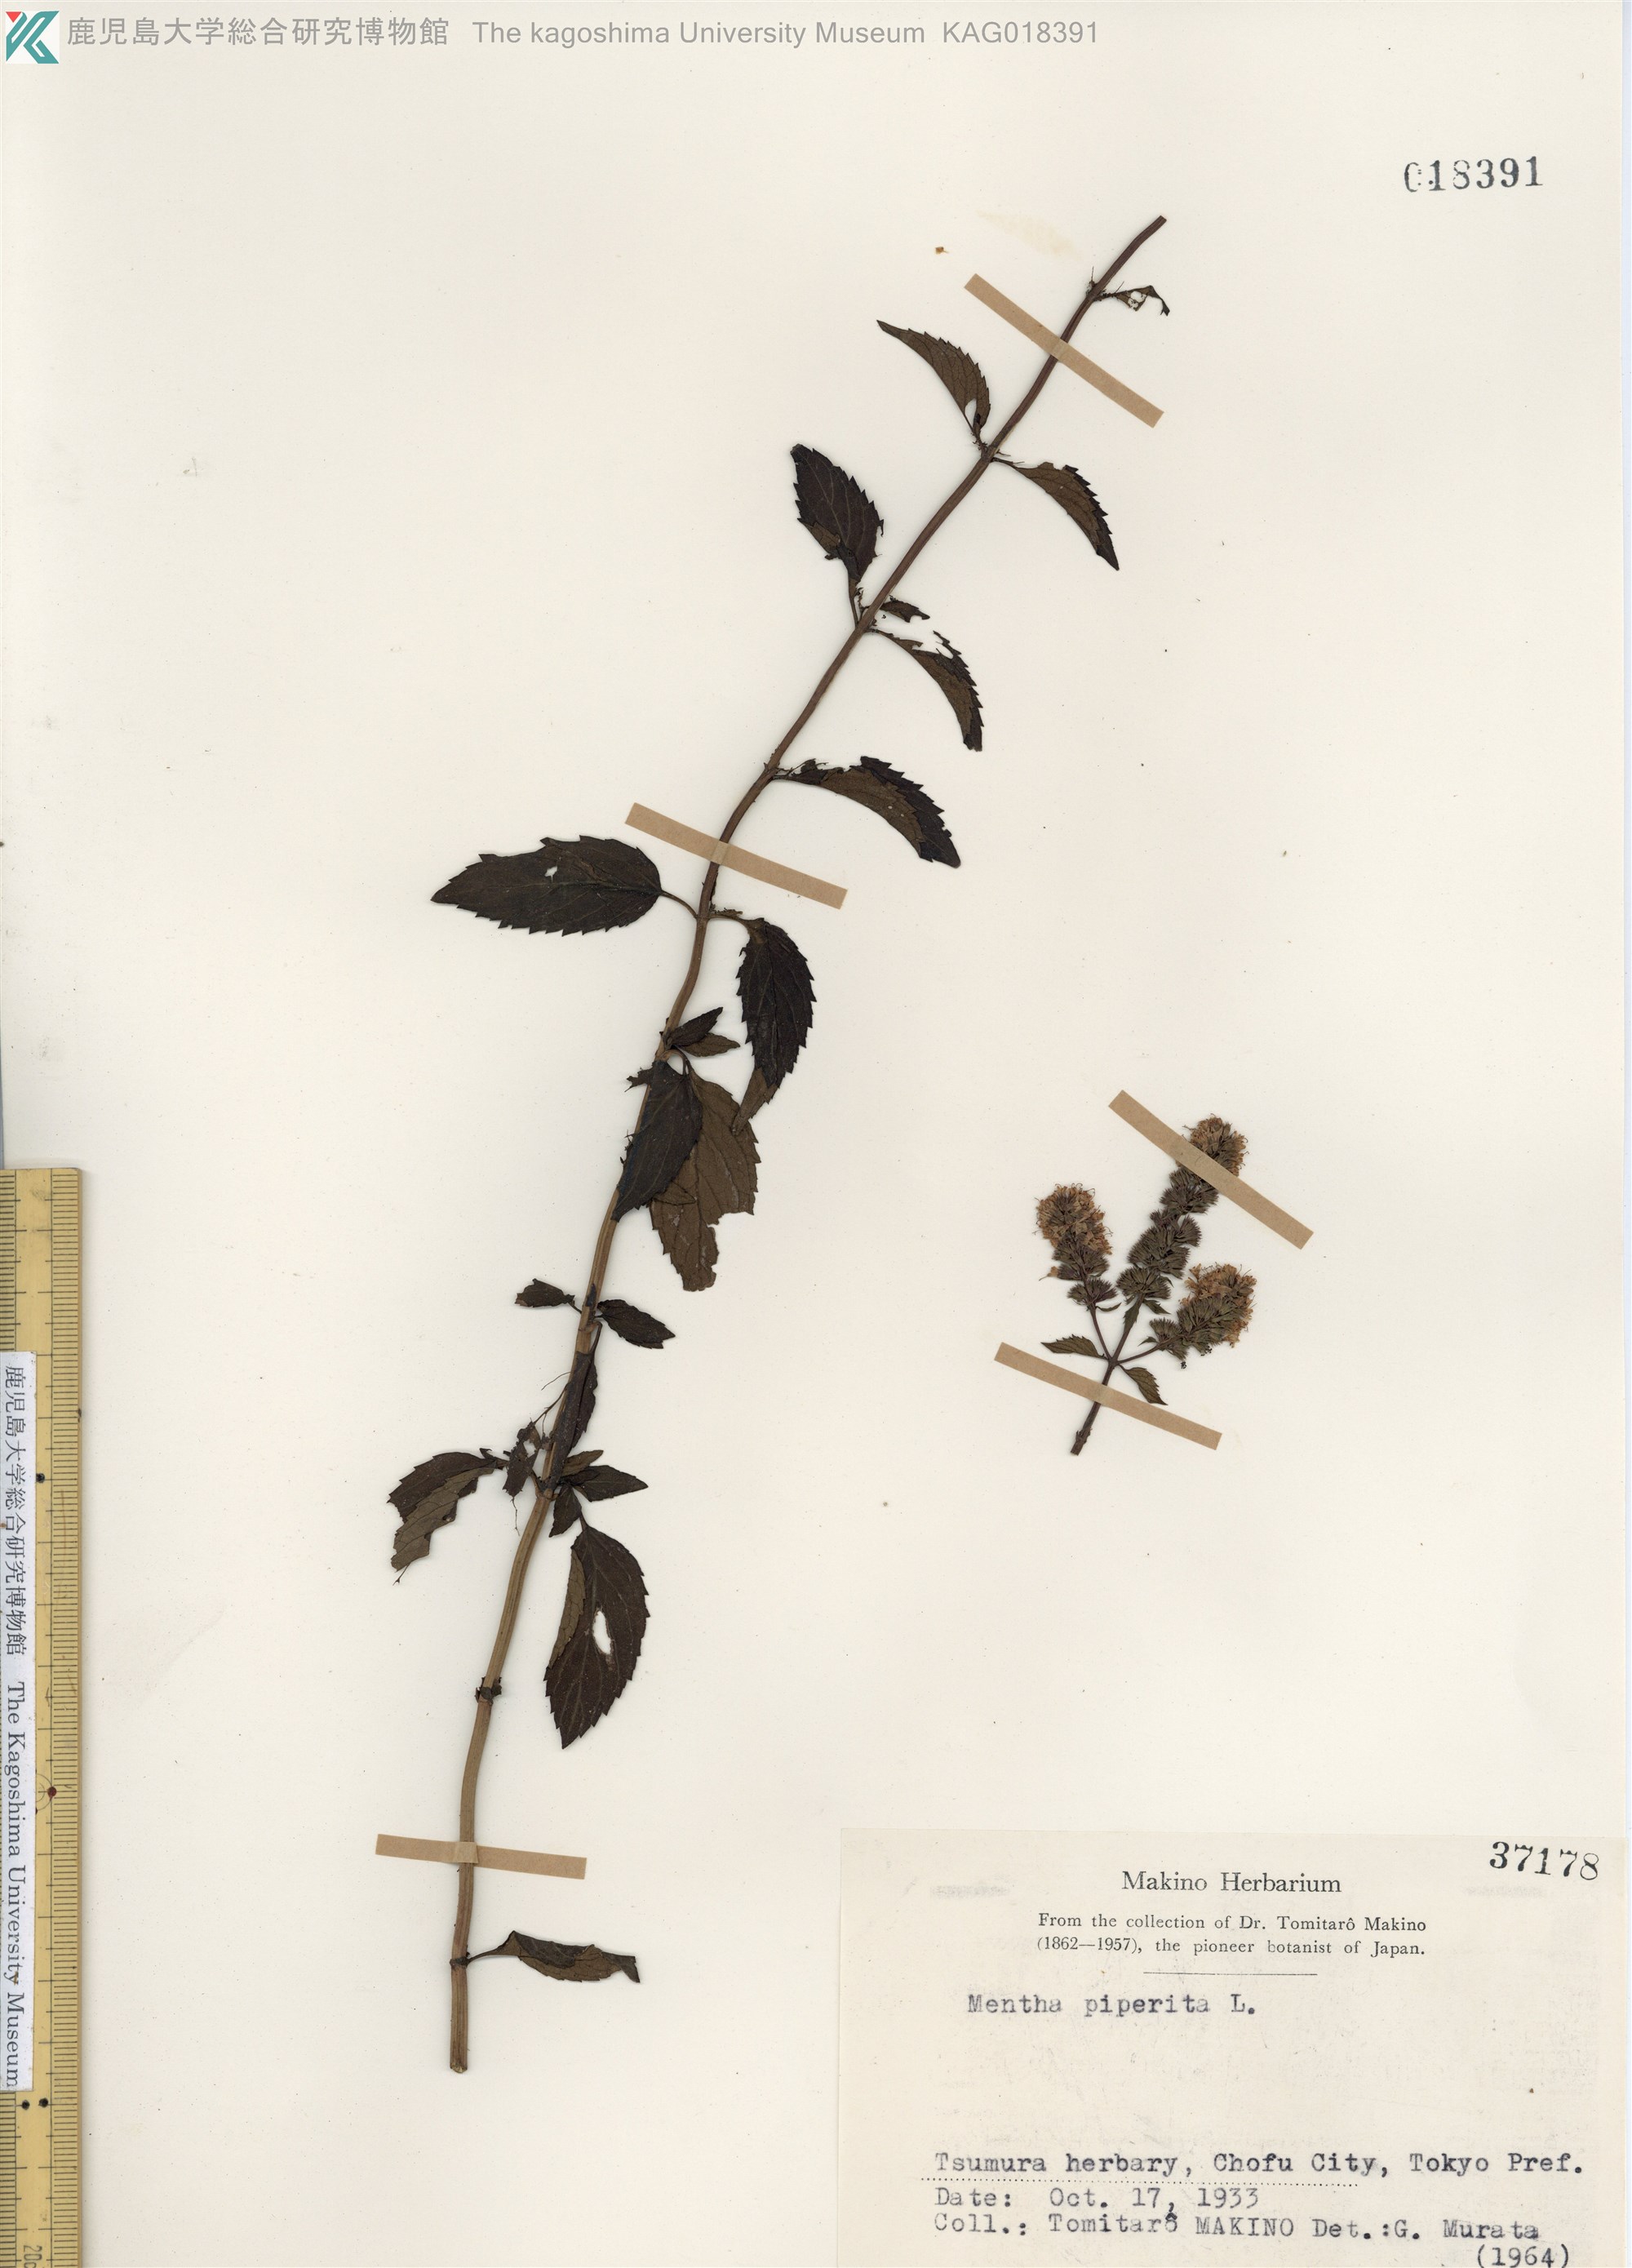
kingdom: Plantae
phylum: Tracheophyta
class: Magnoliopsida
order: Lamiales
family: Lamiaceae
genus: Mentha
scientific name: Mentha piperita
